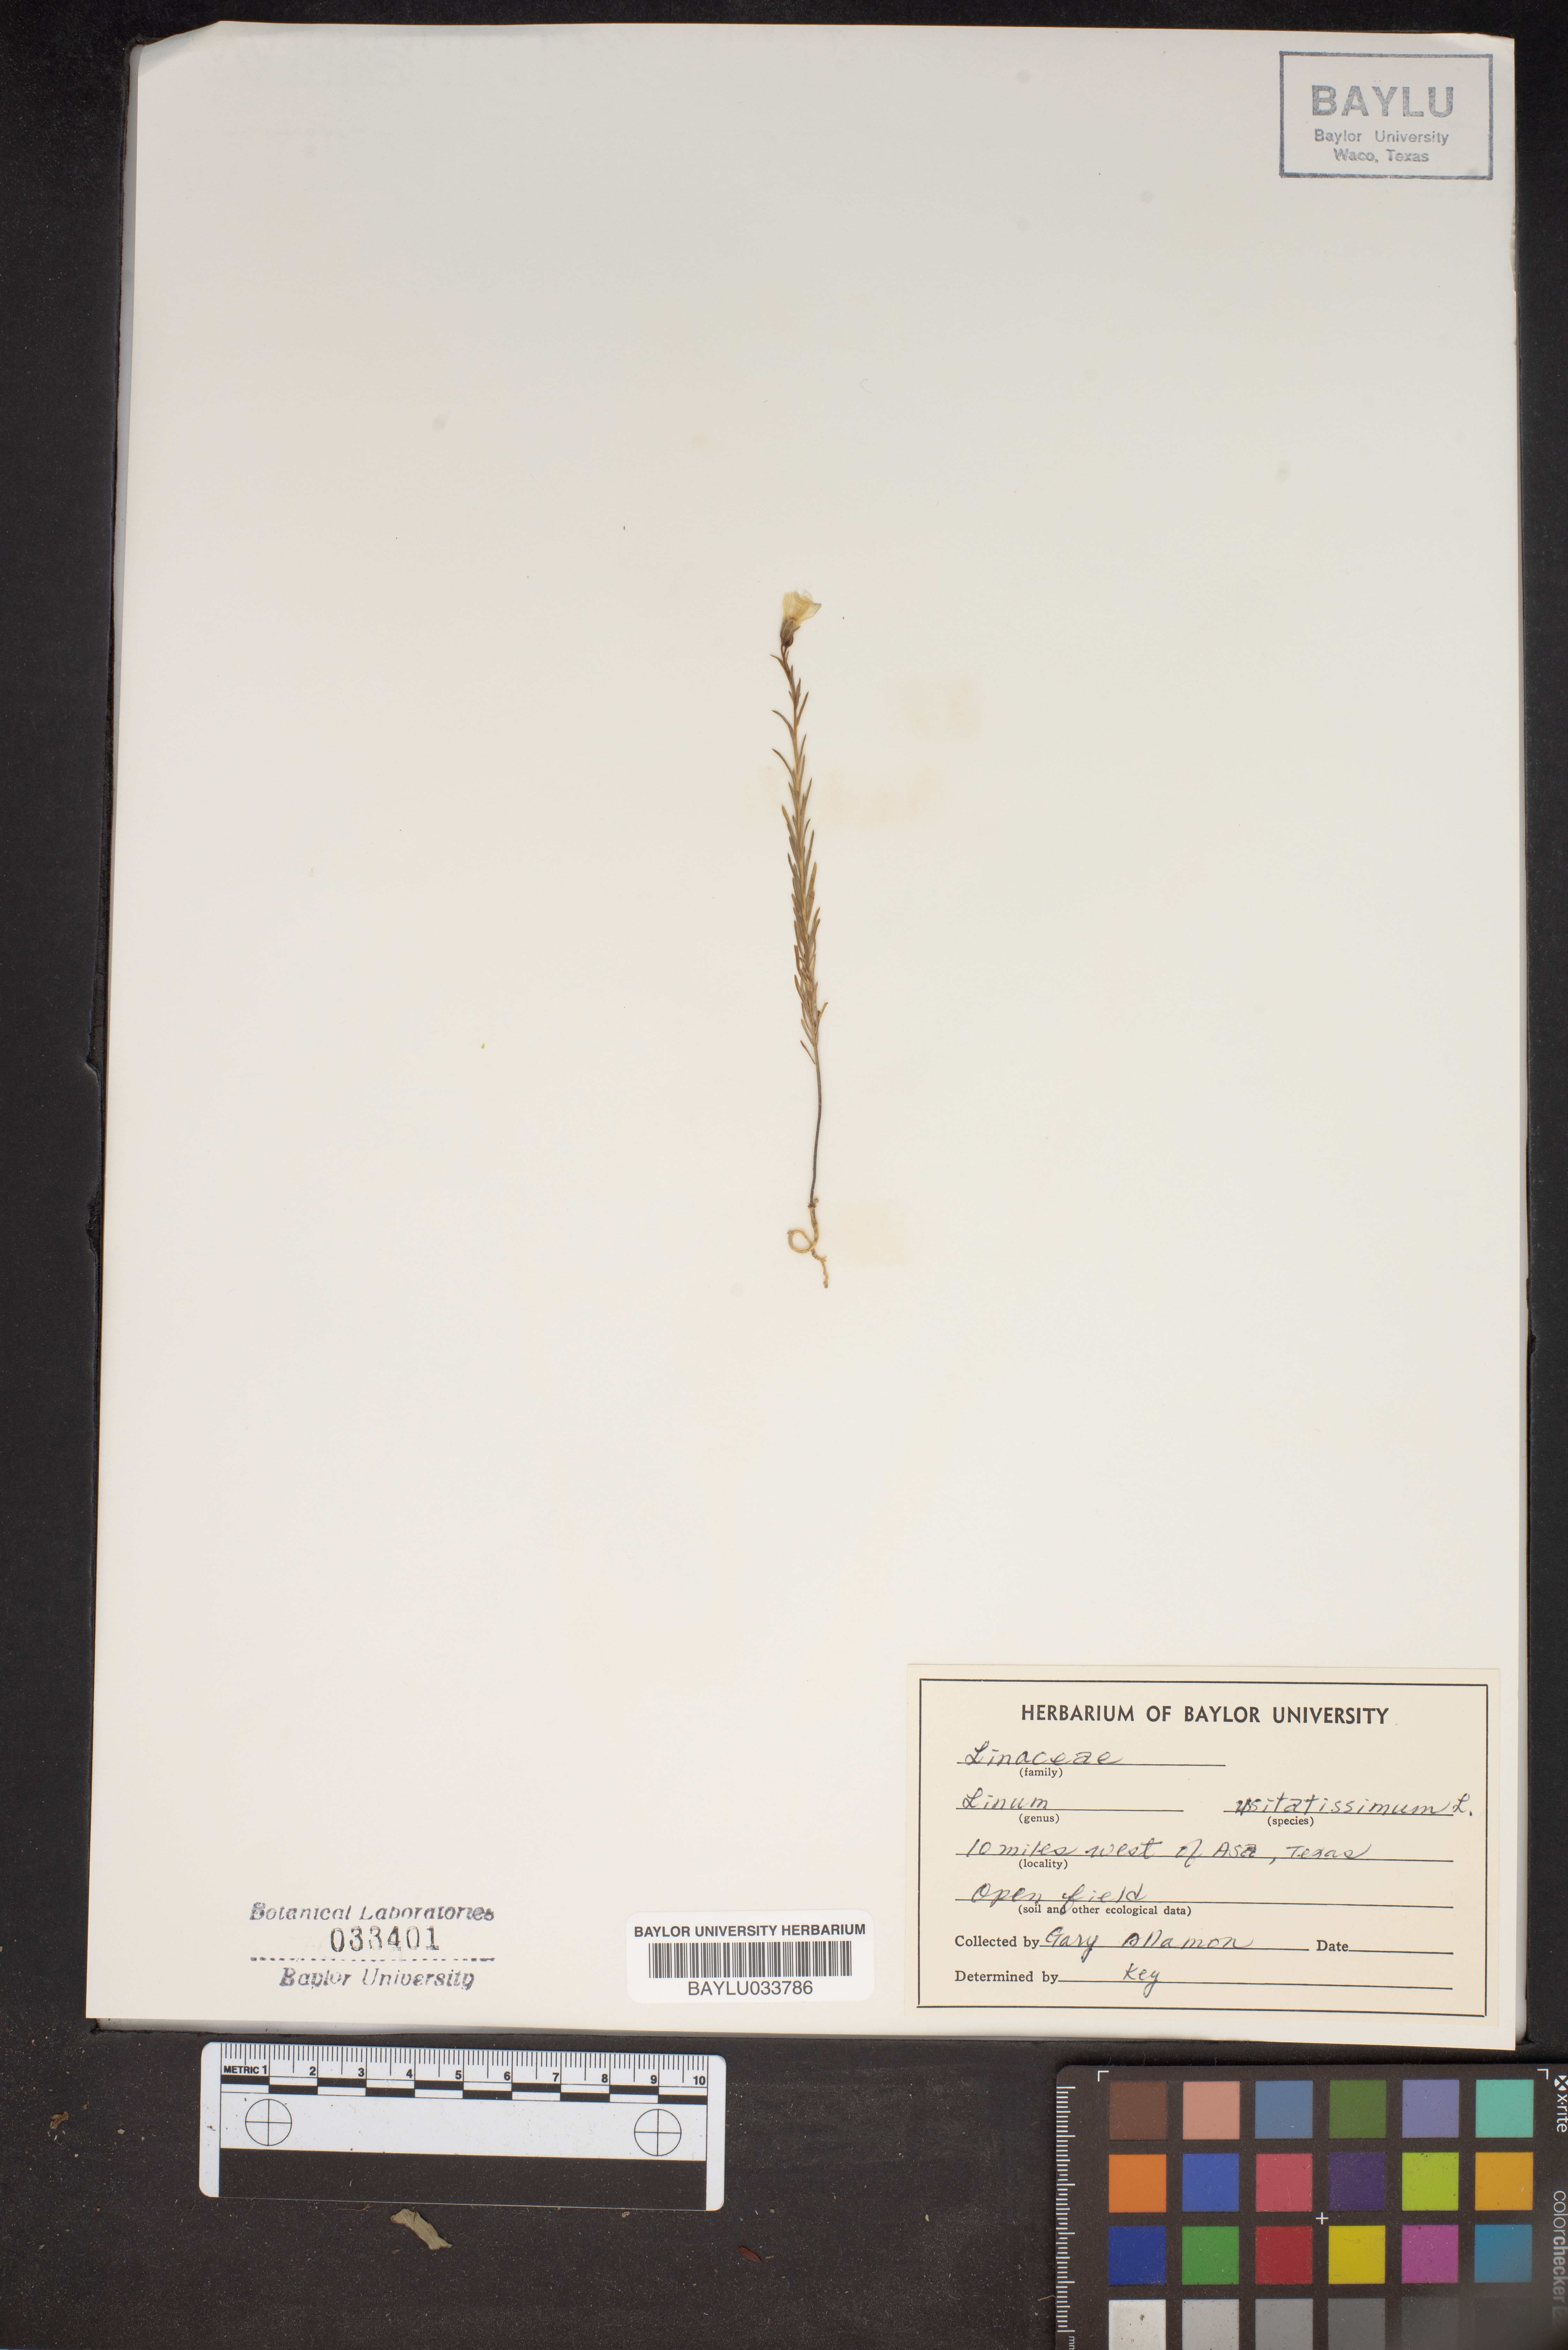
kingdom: Plantae
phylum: Tracheophyta
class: Magnoliopsida
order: Malpighiales
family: Linaceae
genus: Linum
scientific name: Linum usitatissimum
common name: Flax
